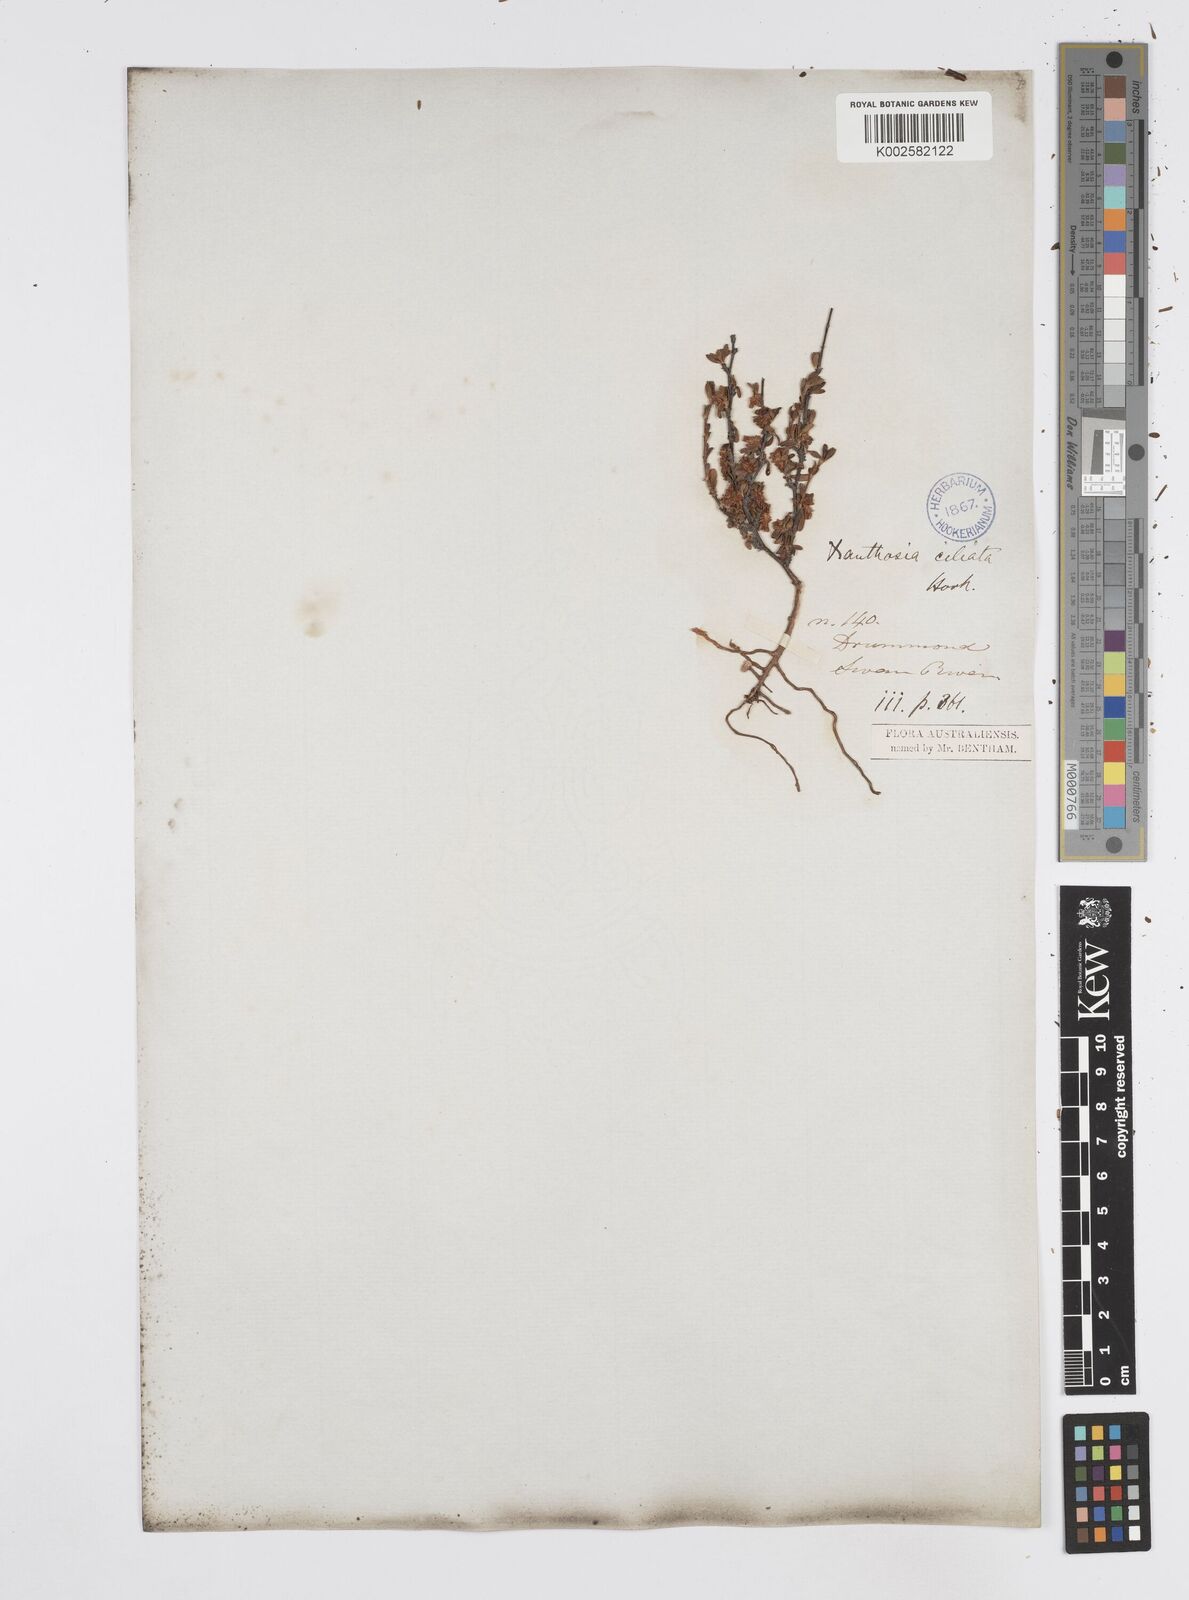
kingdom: Plantae
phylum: Tracheophyta
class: Magnoliopsida
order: Apiales
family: Apiaceae
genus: Xanthosia
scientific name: Xanthosia ciliata
